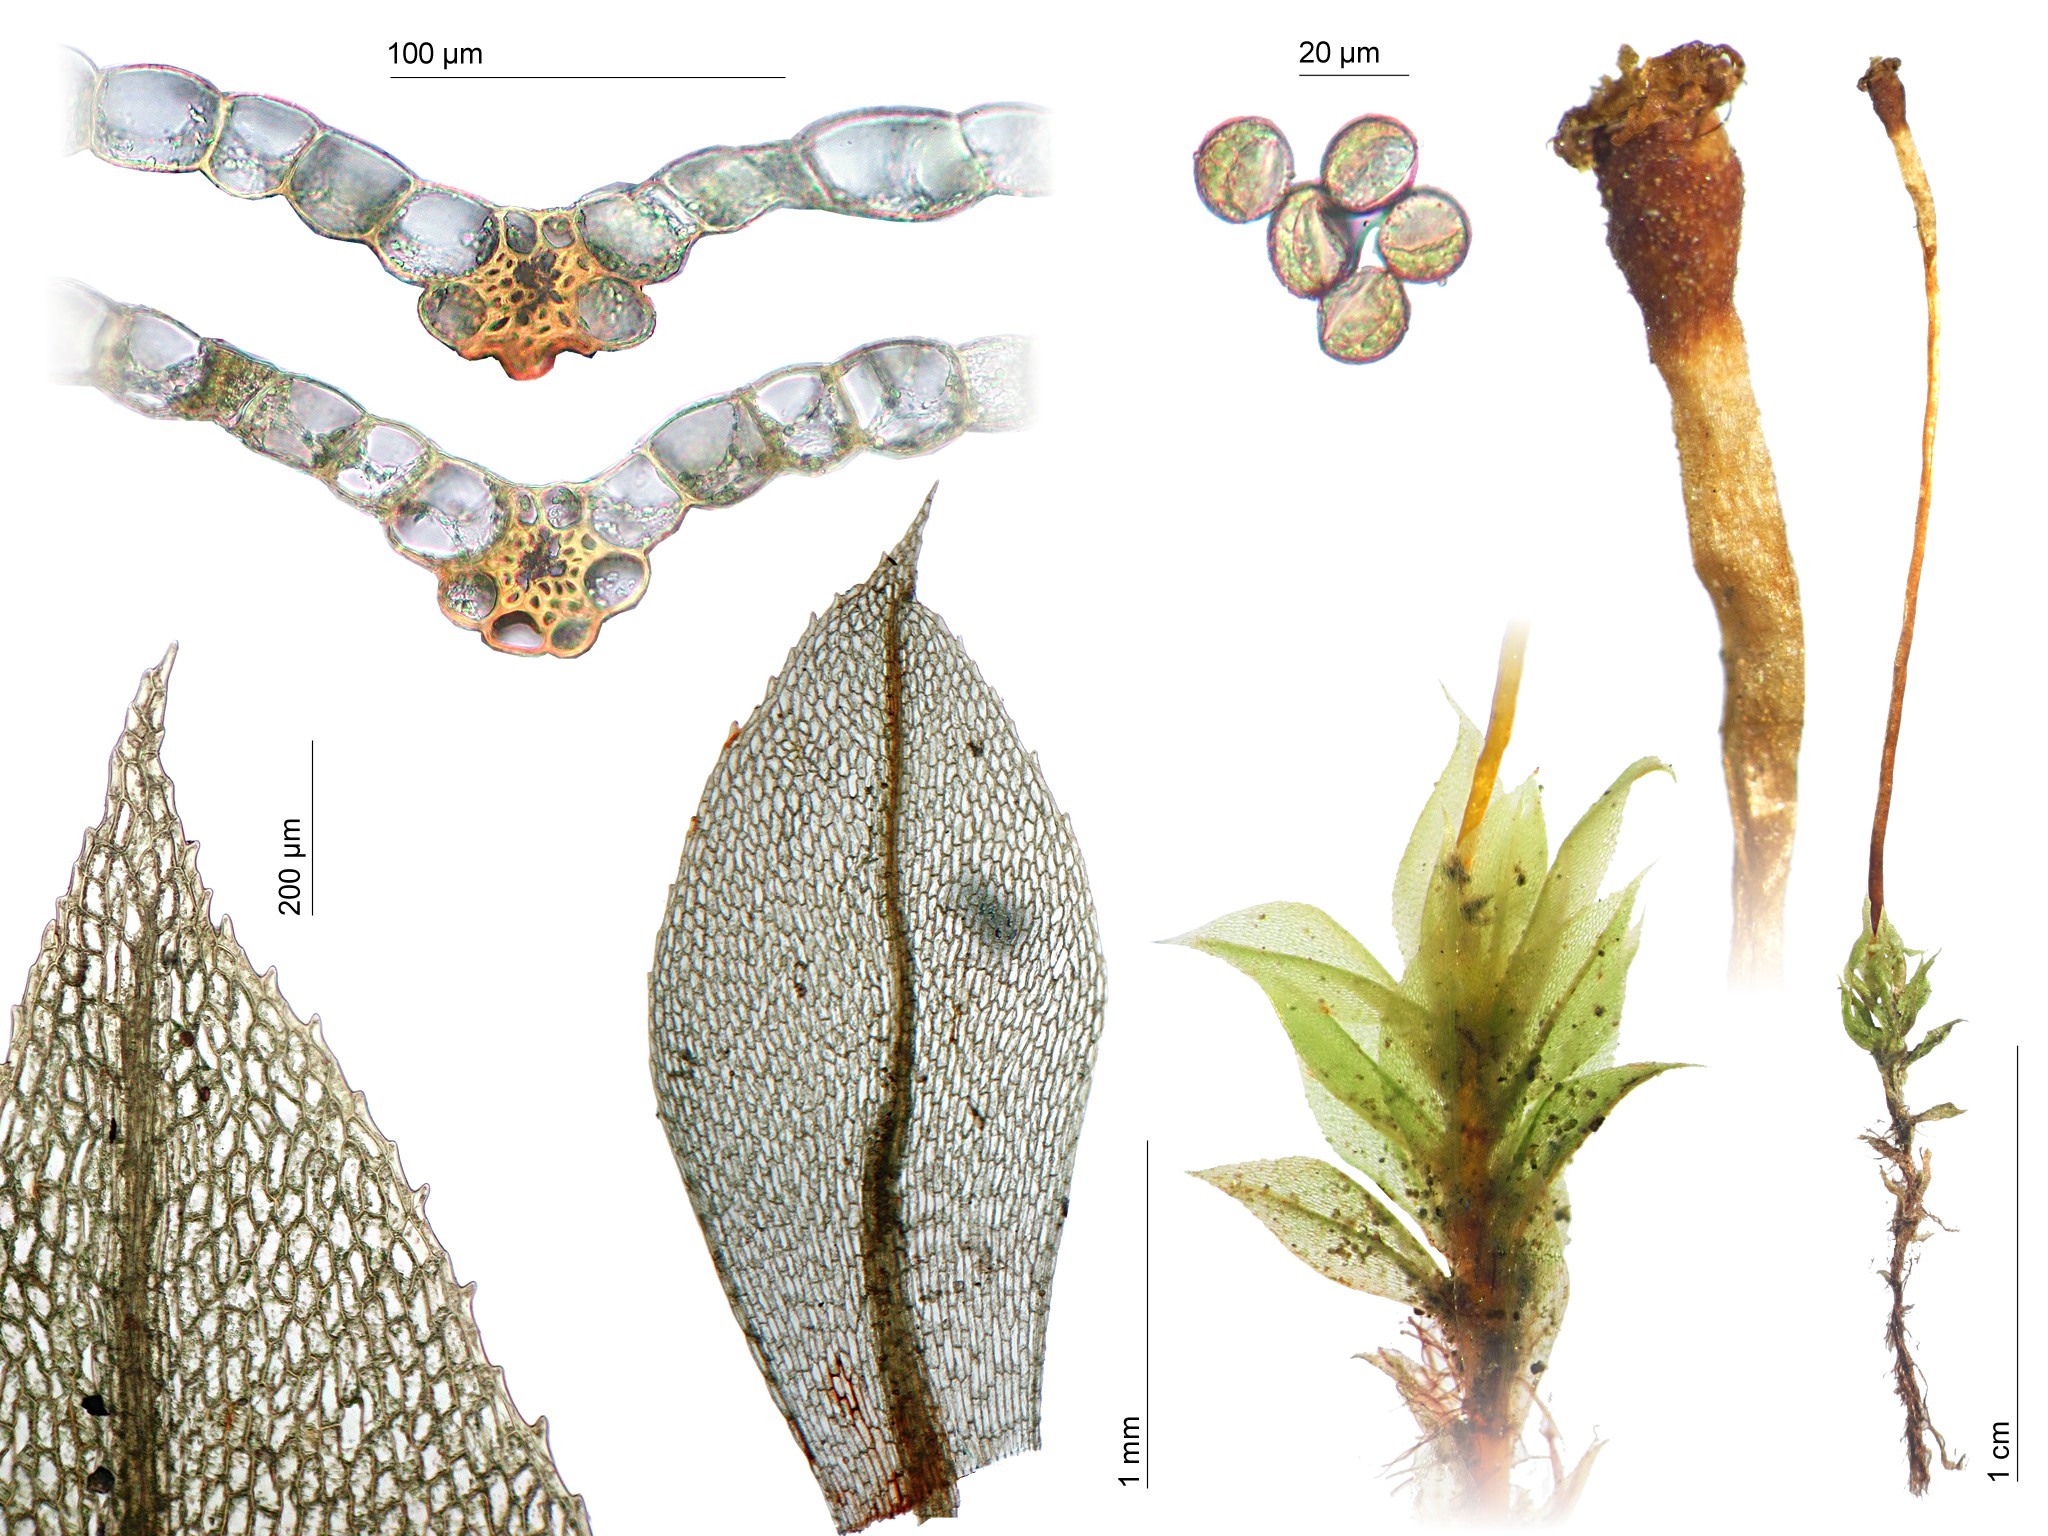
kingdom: Plantae
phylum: Bryophyta
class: Bryopsida
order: Splachnales
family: Splachnaceae
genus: Tayloria
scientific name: Tayloria acuminata
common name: Acuminate trumpet moss
